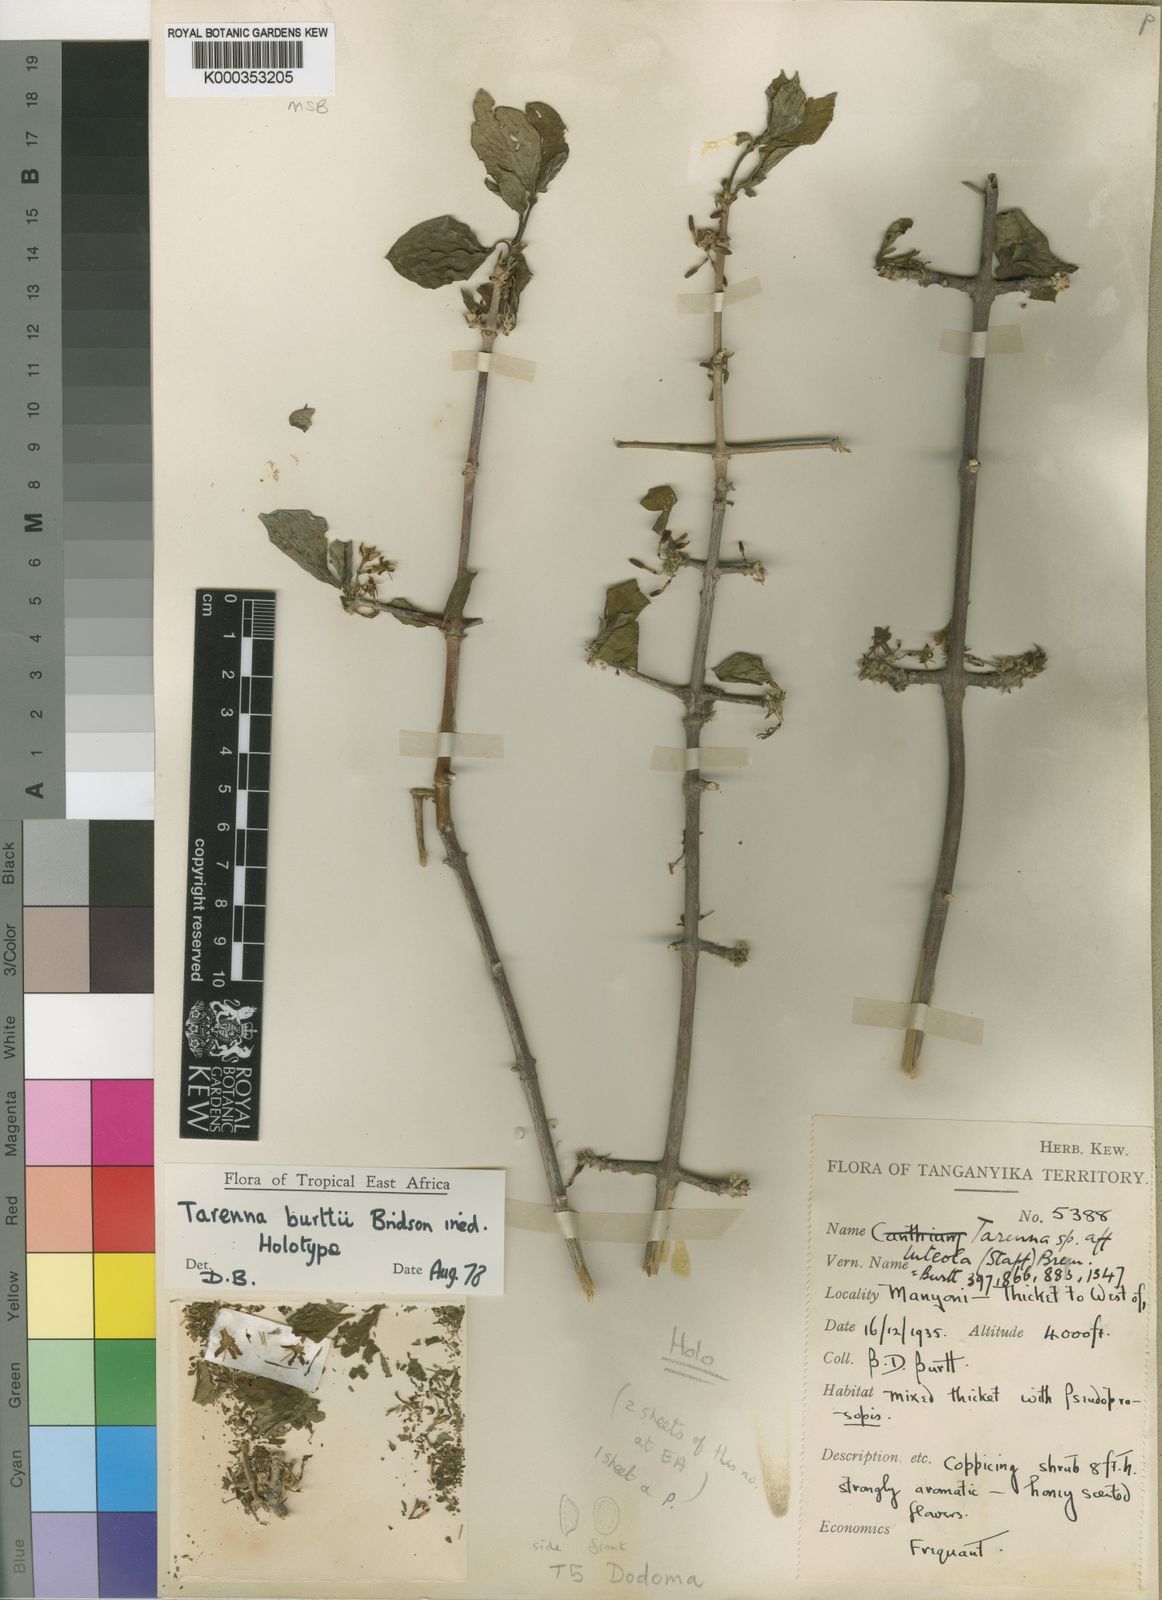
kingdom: Plantae
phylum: Tracheophyta
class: Magnoliopsida
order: Gentianales
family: Rubiaceae
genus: Tarenna
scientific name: Tarenna burttii
